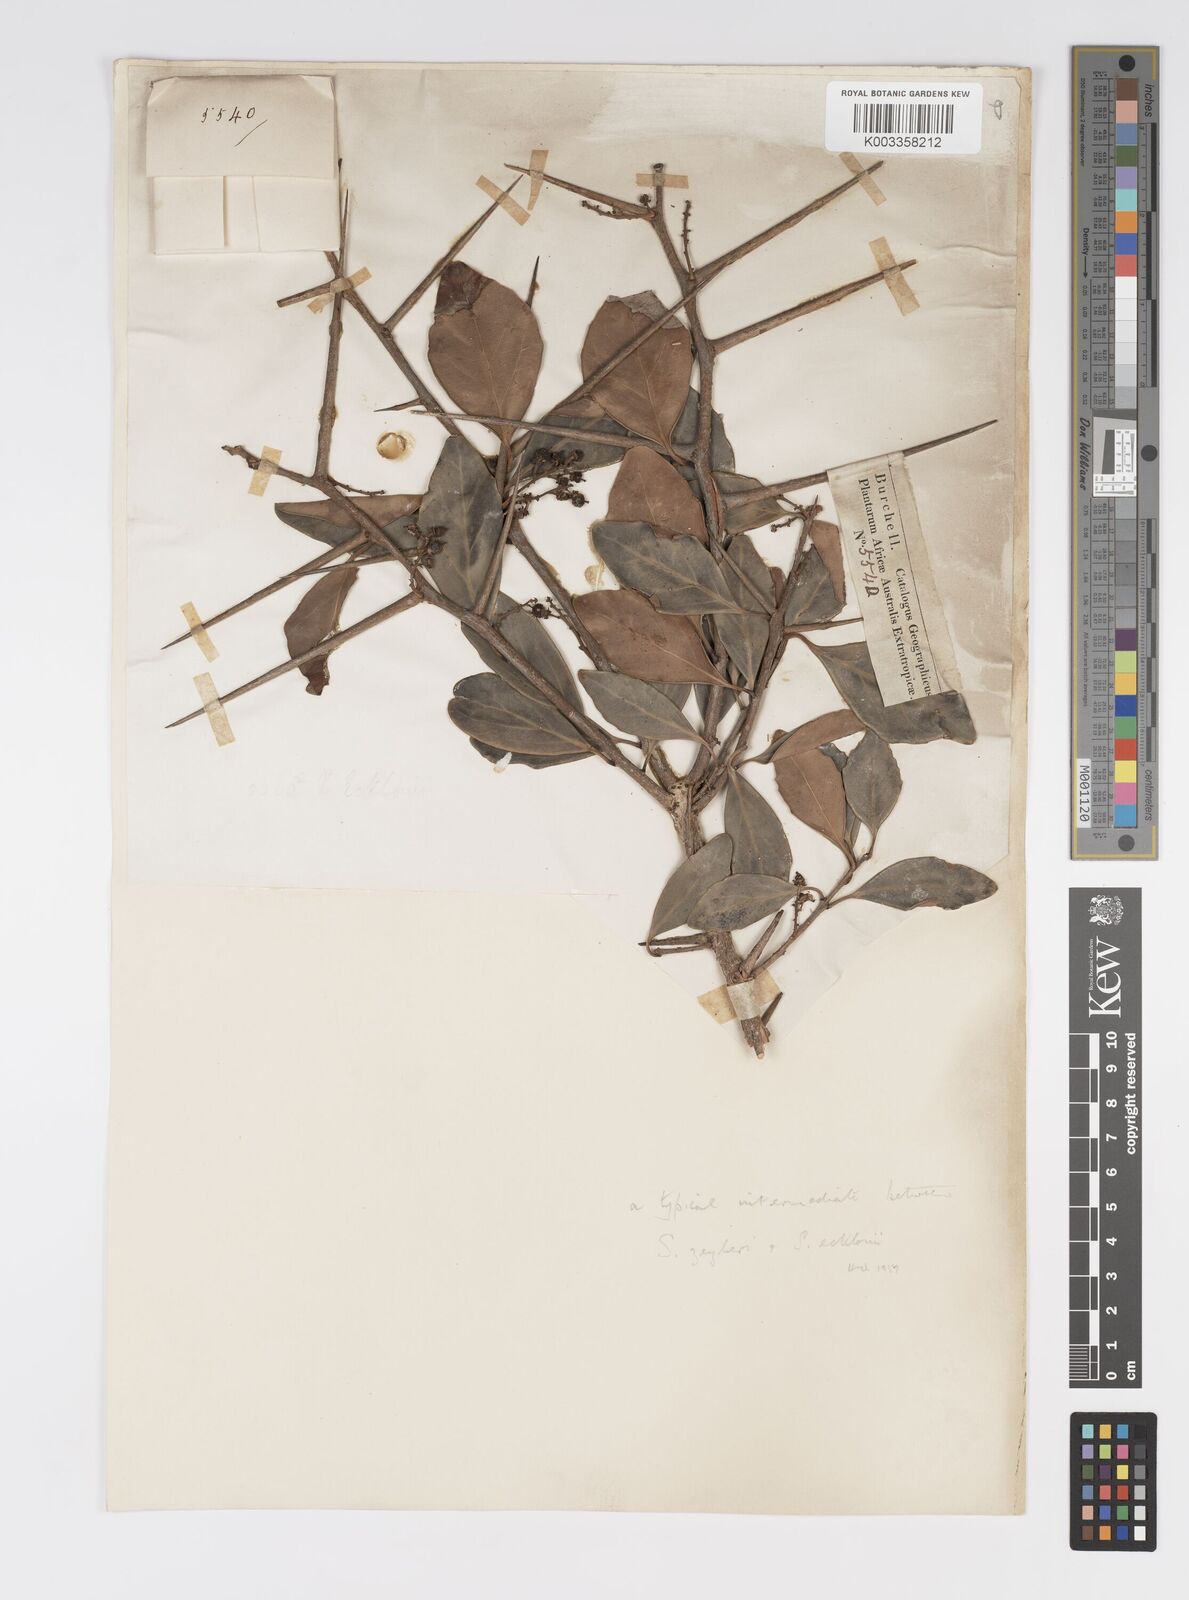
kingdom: Plantae
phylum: Tracheophyta
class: Magnoliopsida
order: Malpighiales
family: Salicaceae
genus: Scolopia
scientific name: Scolopia zeyheri
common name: Thorn pear
